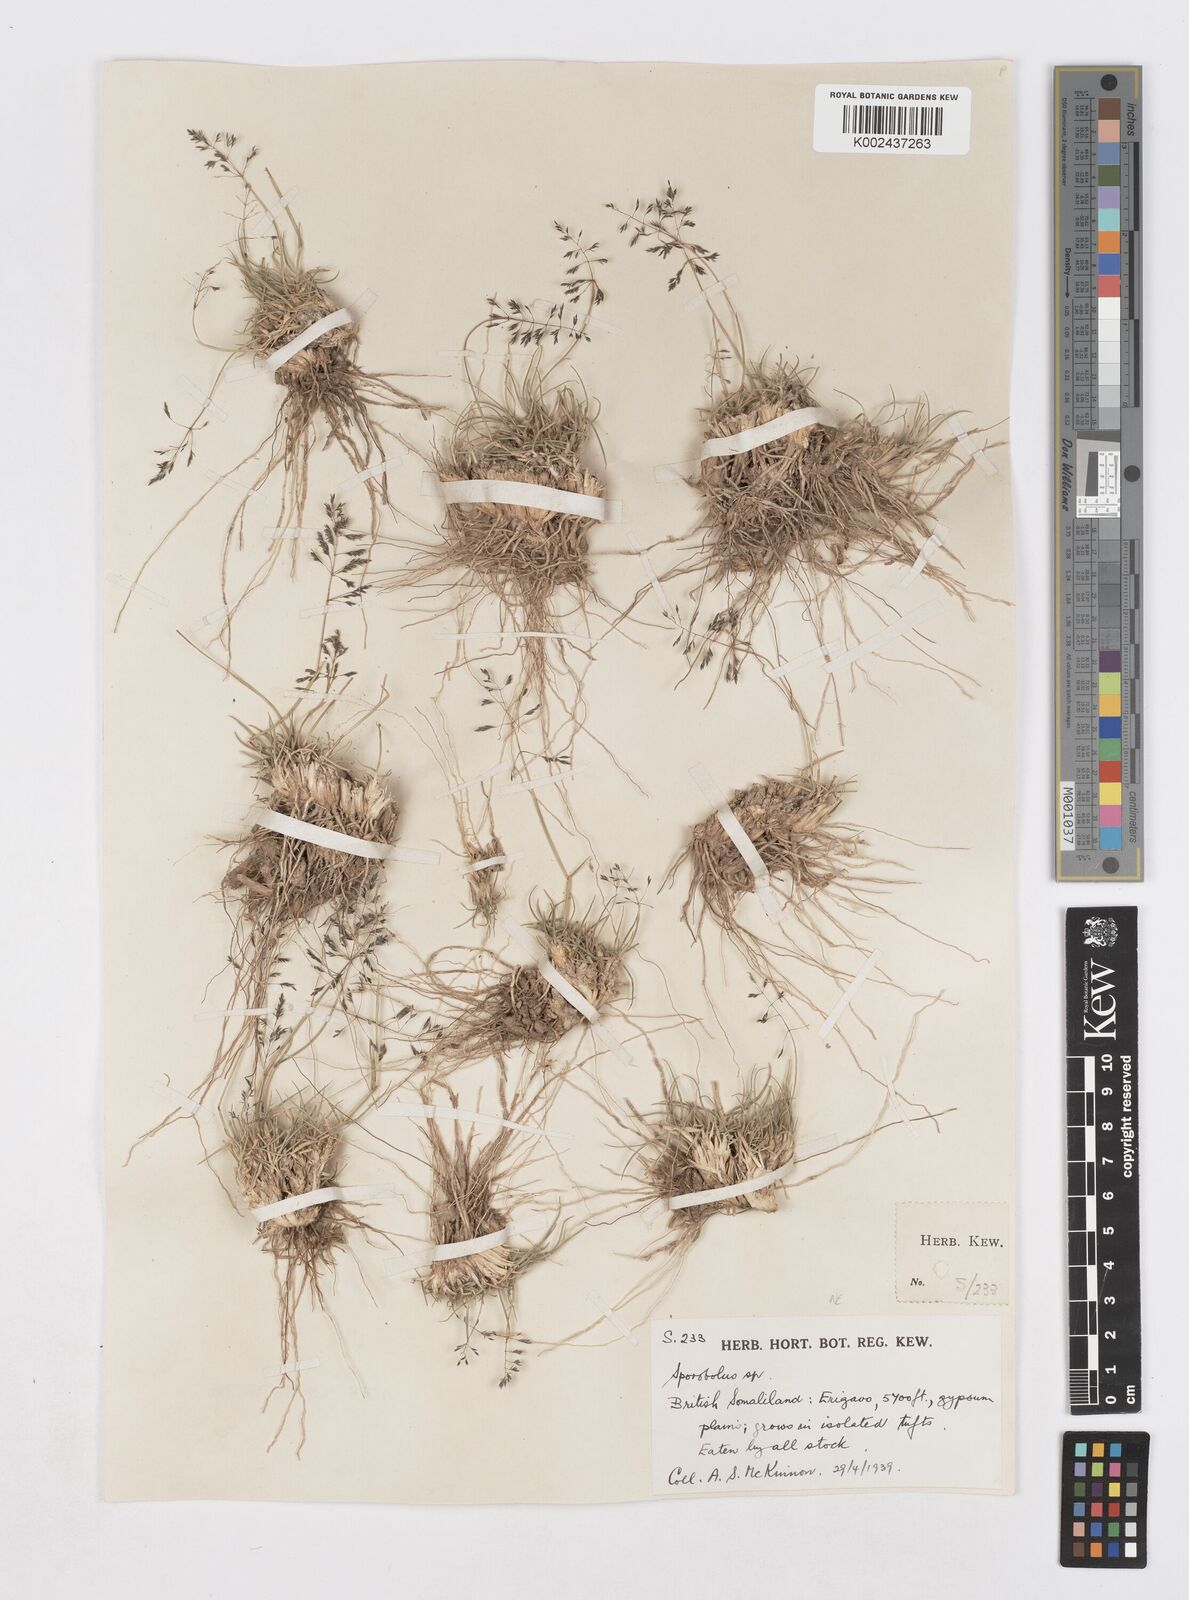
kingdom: Plantae
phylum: Tracheophyta
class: Liliopsida
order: Poales
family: Poaceae
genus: Sporobolus
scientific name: Sporobolus ioclados
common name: Pan dropseed
